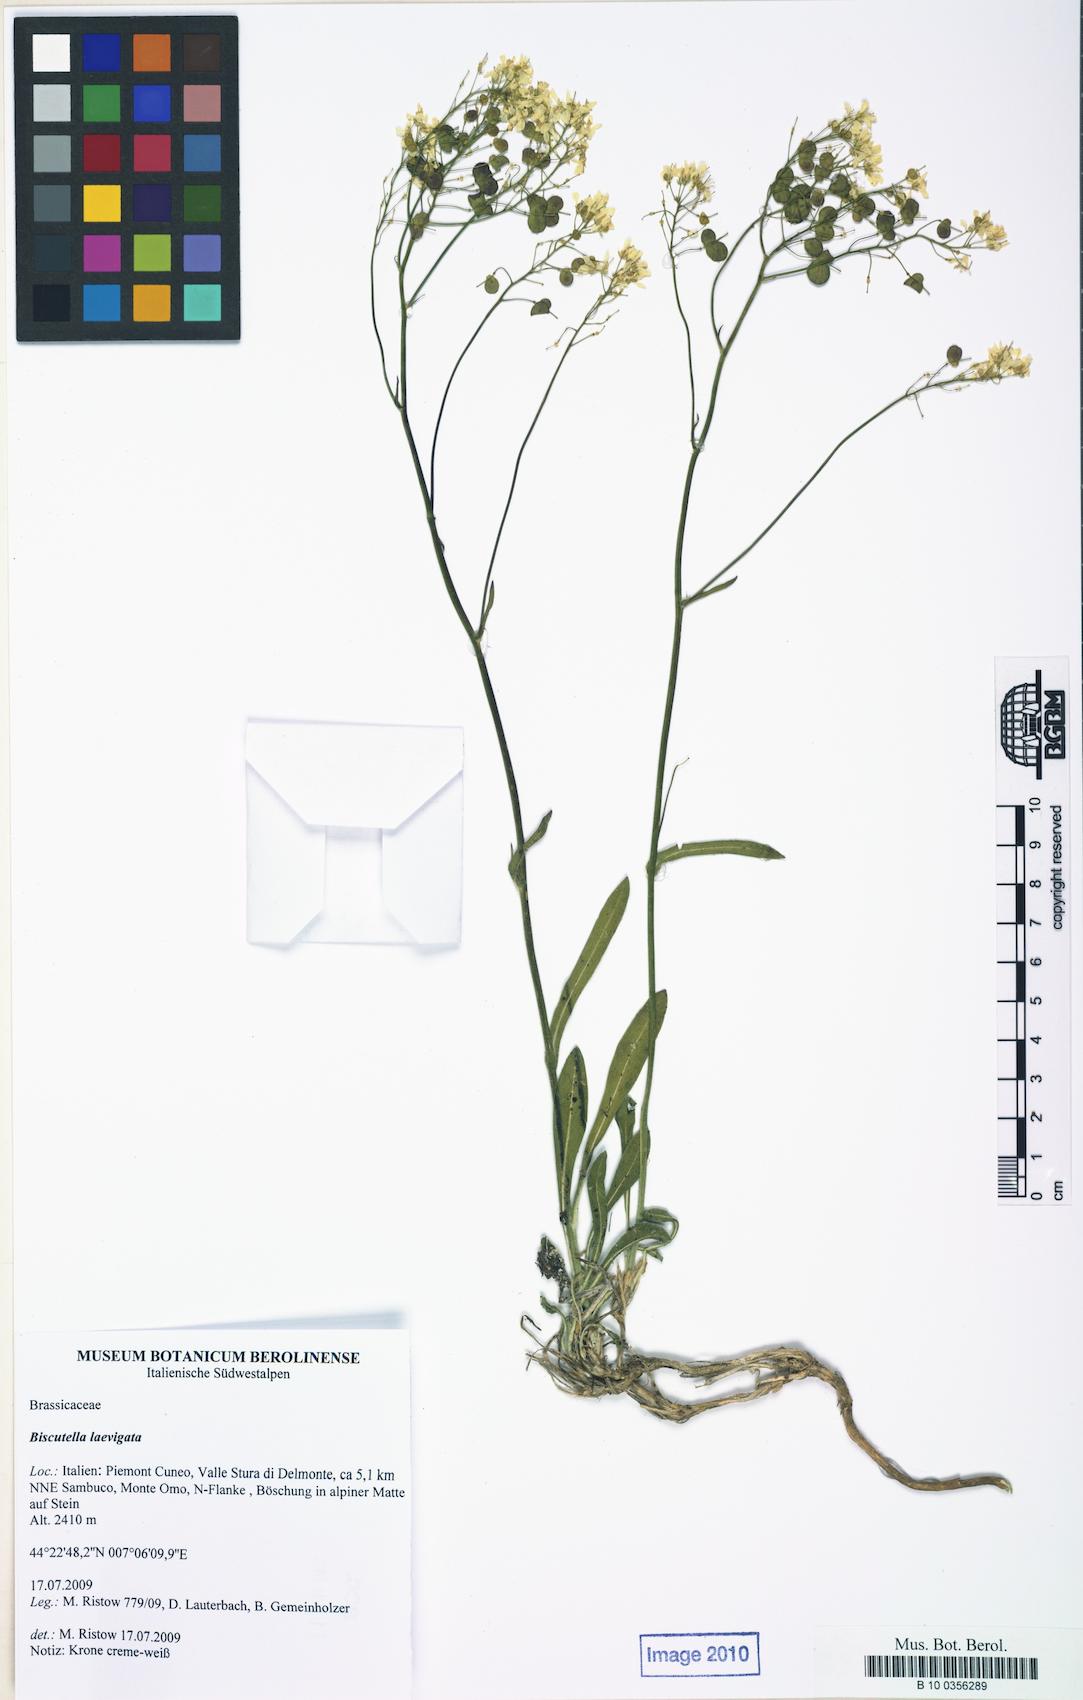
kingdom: Plantae
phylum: Tracheophyta
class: Magnoliopsida
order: Brassicales
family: Brassicaceae
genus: Biscutella
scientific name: Biscutella laevigata
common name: Buckler mustard
